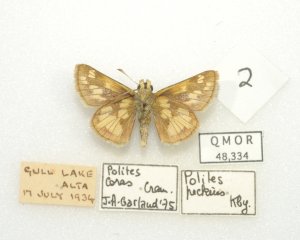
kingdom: Animalia
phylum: Arthropoda
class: Insecta
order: Lepidoptera
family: Hesperiidae
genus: Polites
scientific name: Polites coras
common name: Peck's Skipper
